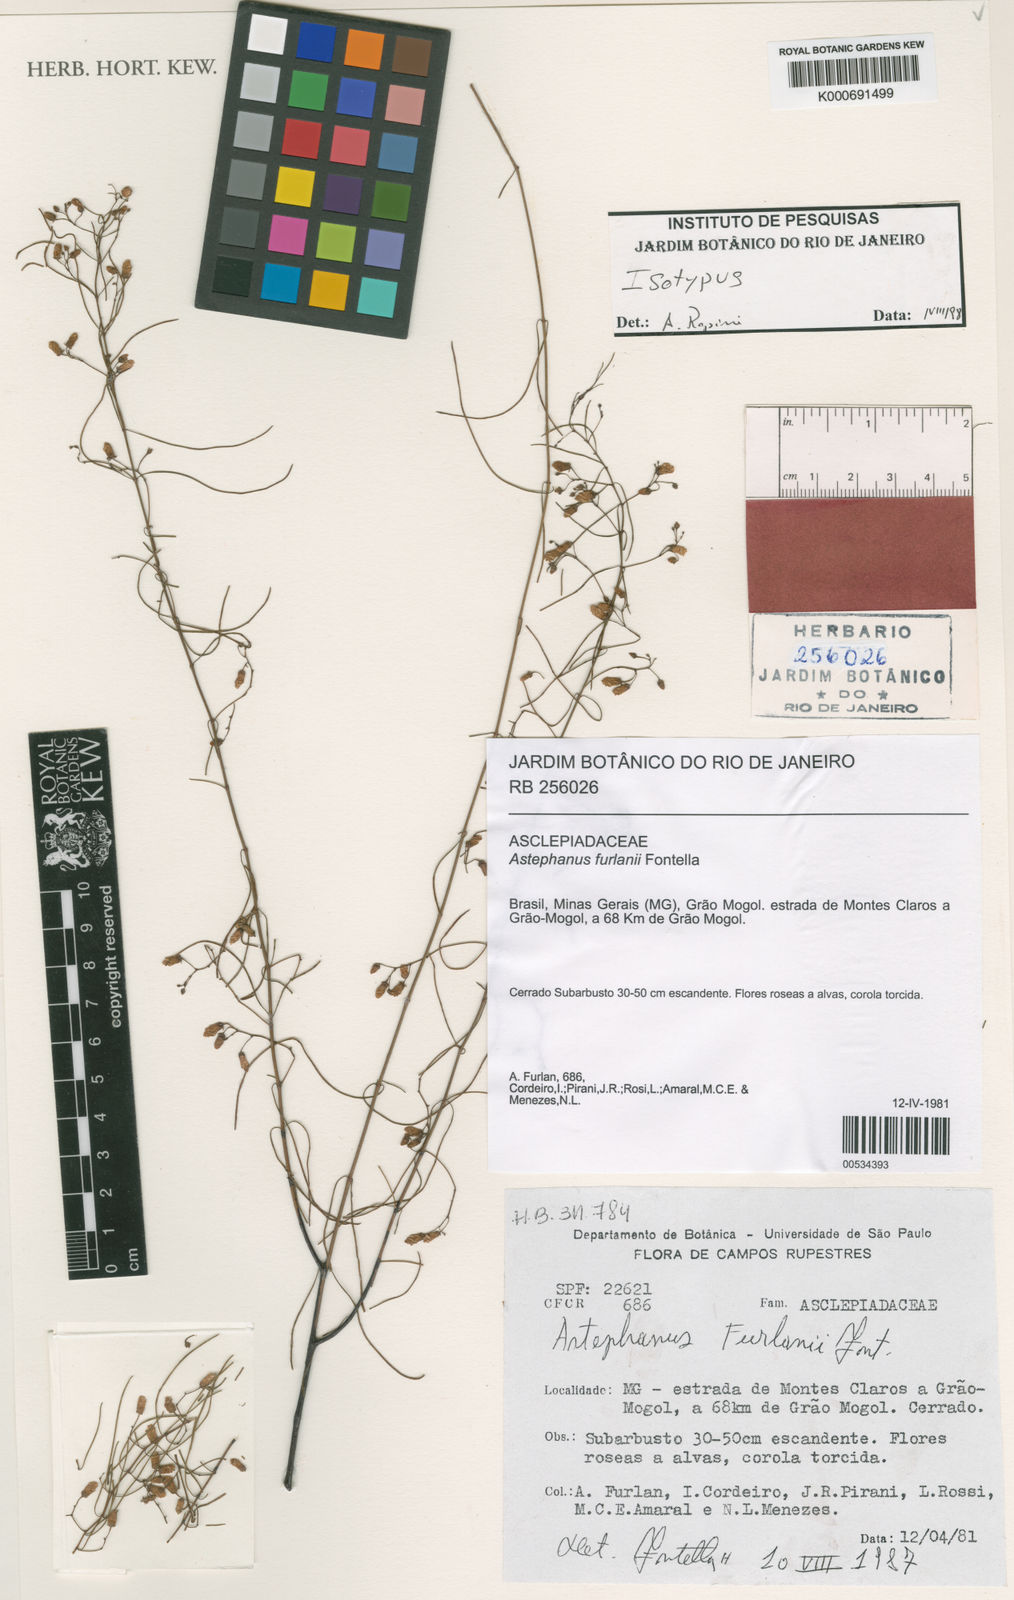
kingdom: Plantae
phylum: Tracheophyta
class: Magnoliopsida
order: Gentianales
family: Apocynaceae
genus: Morilloa
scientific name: Morilloa furlanii
